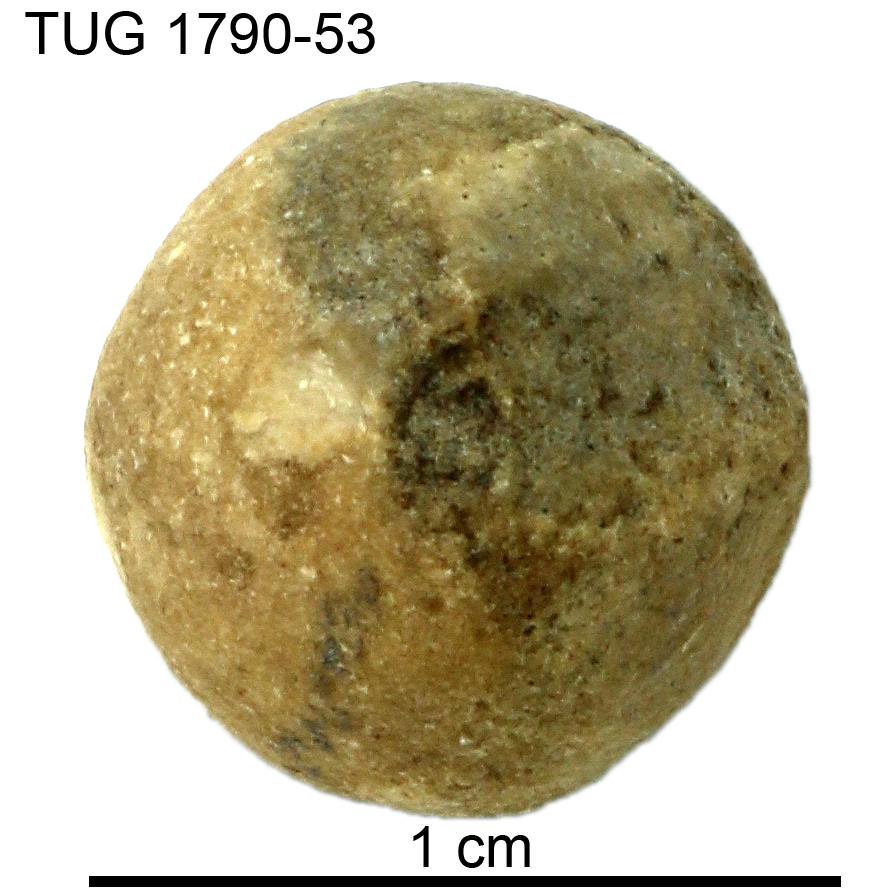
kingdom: Animalia
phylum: Porifera
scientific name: Porifera
